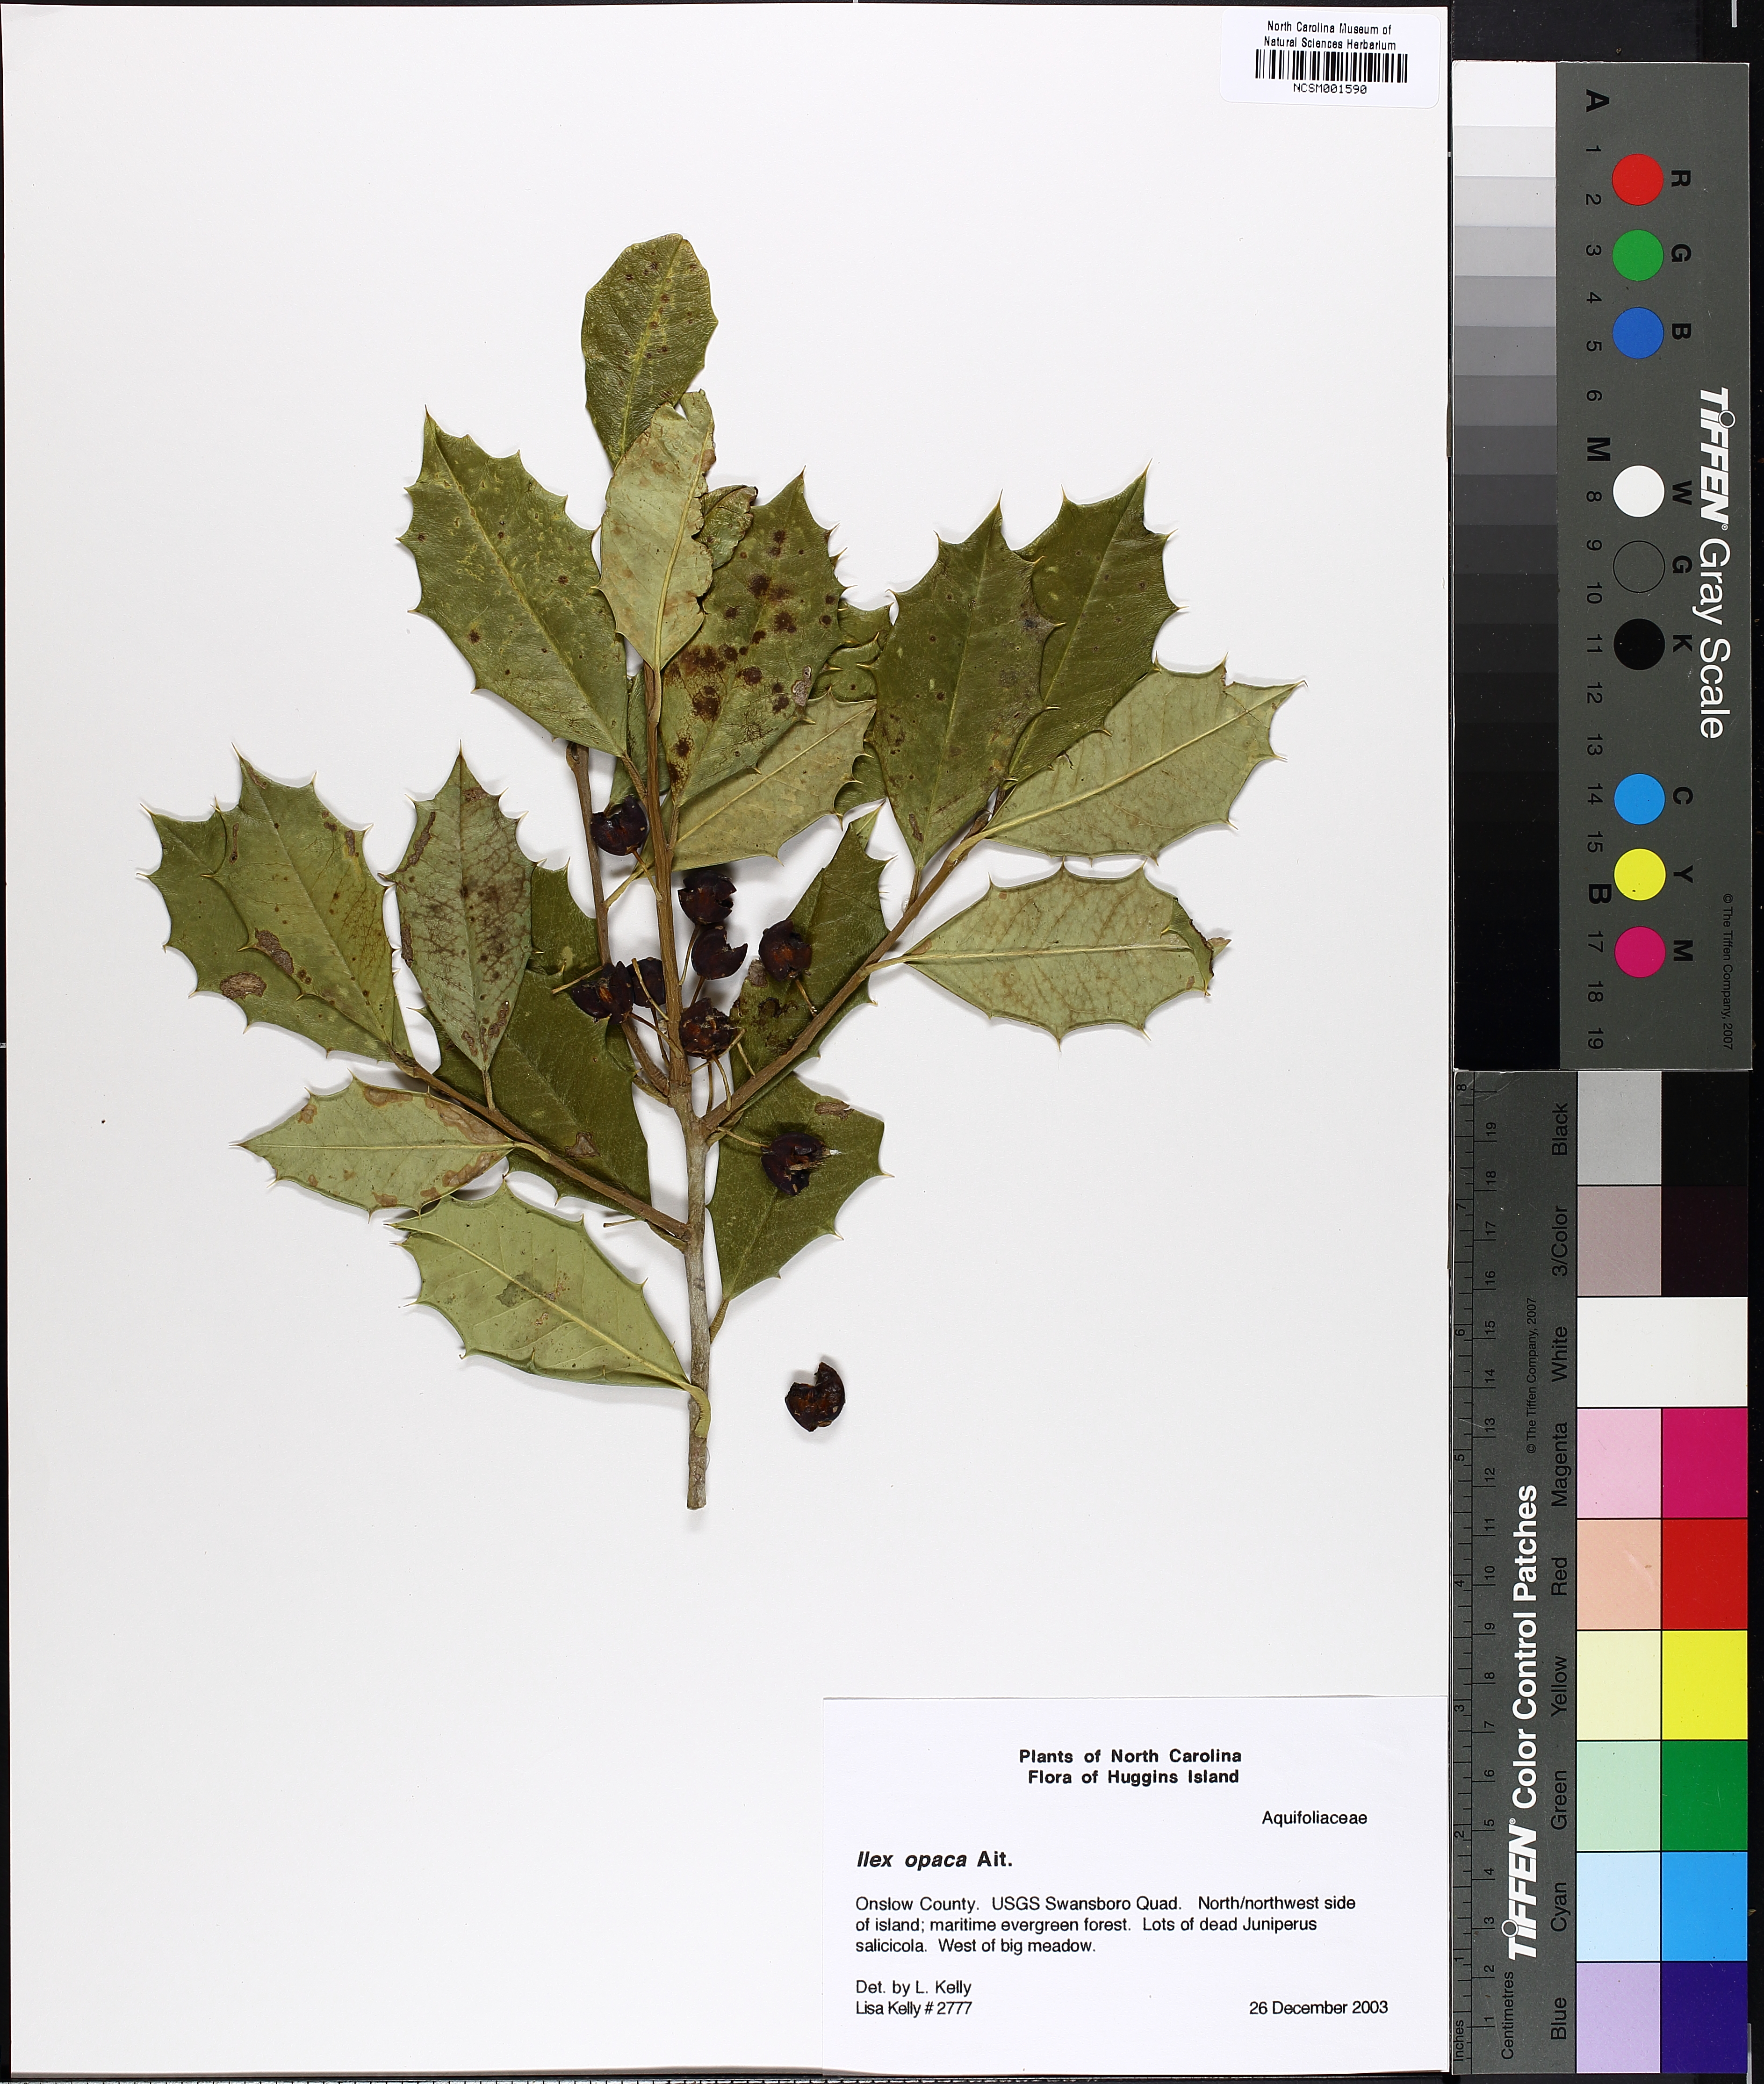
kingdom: Plantae
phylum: Tracheophyta
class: Magnoliopsida
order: Aquifoliales
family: Aquifoliaceae
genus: Ilex
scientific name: Ilex opaca
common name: American holly
